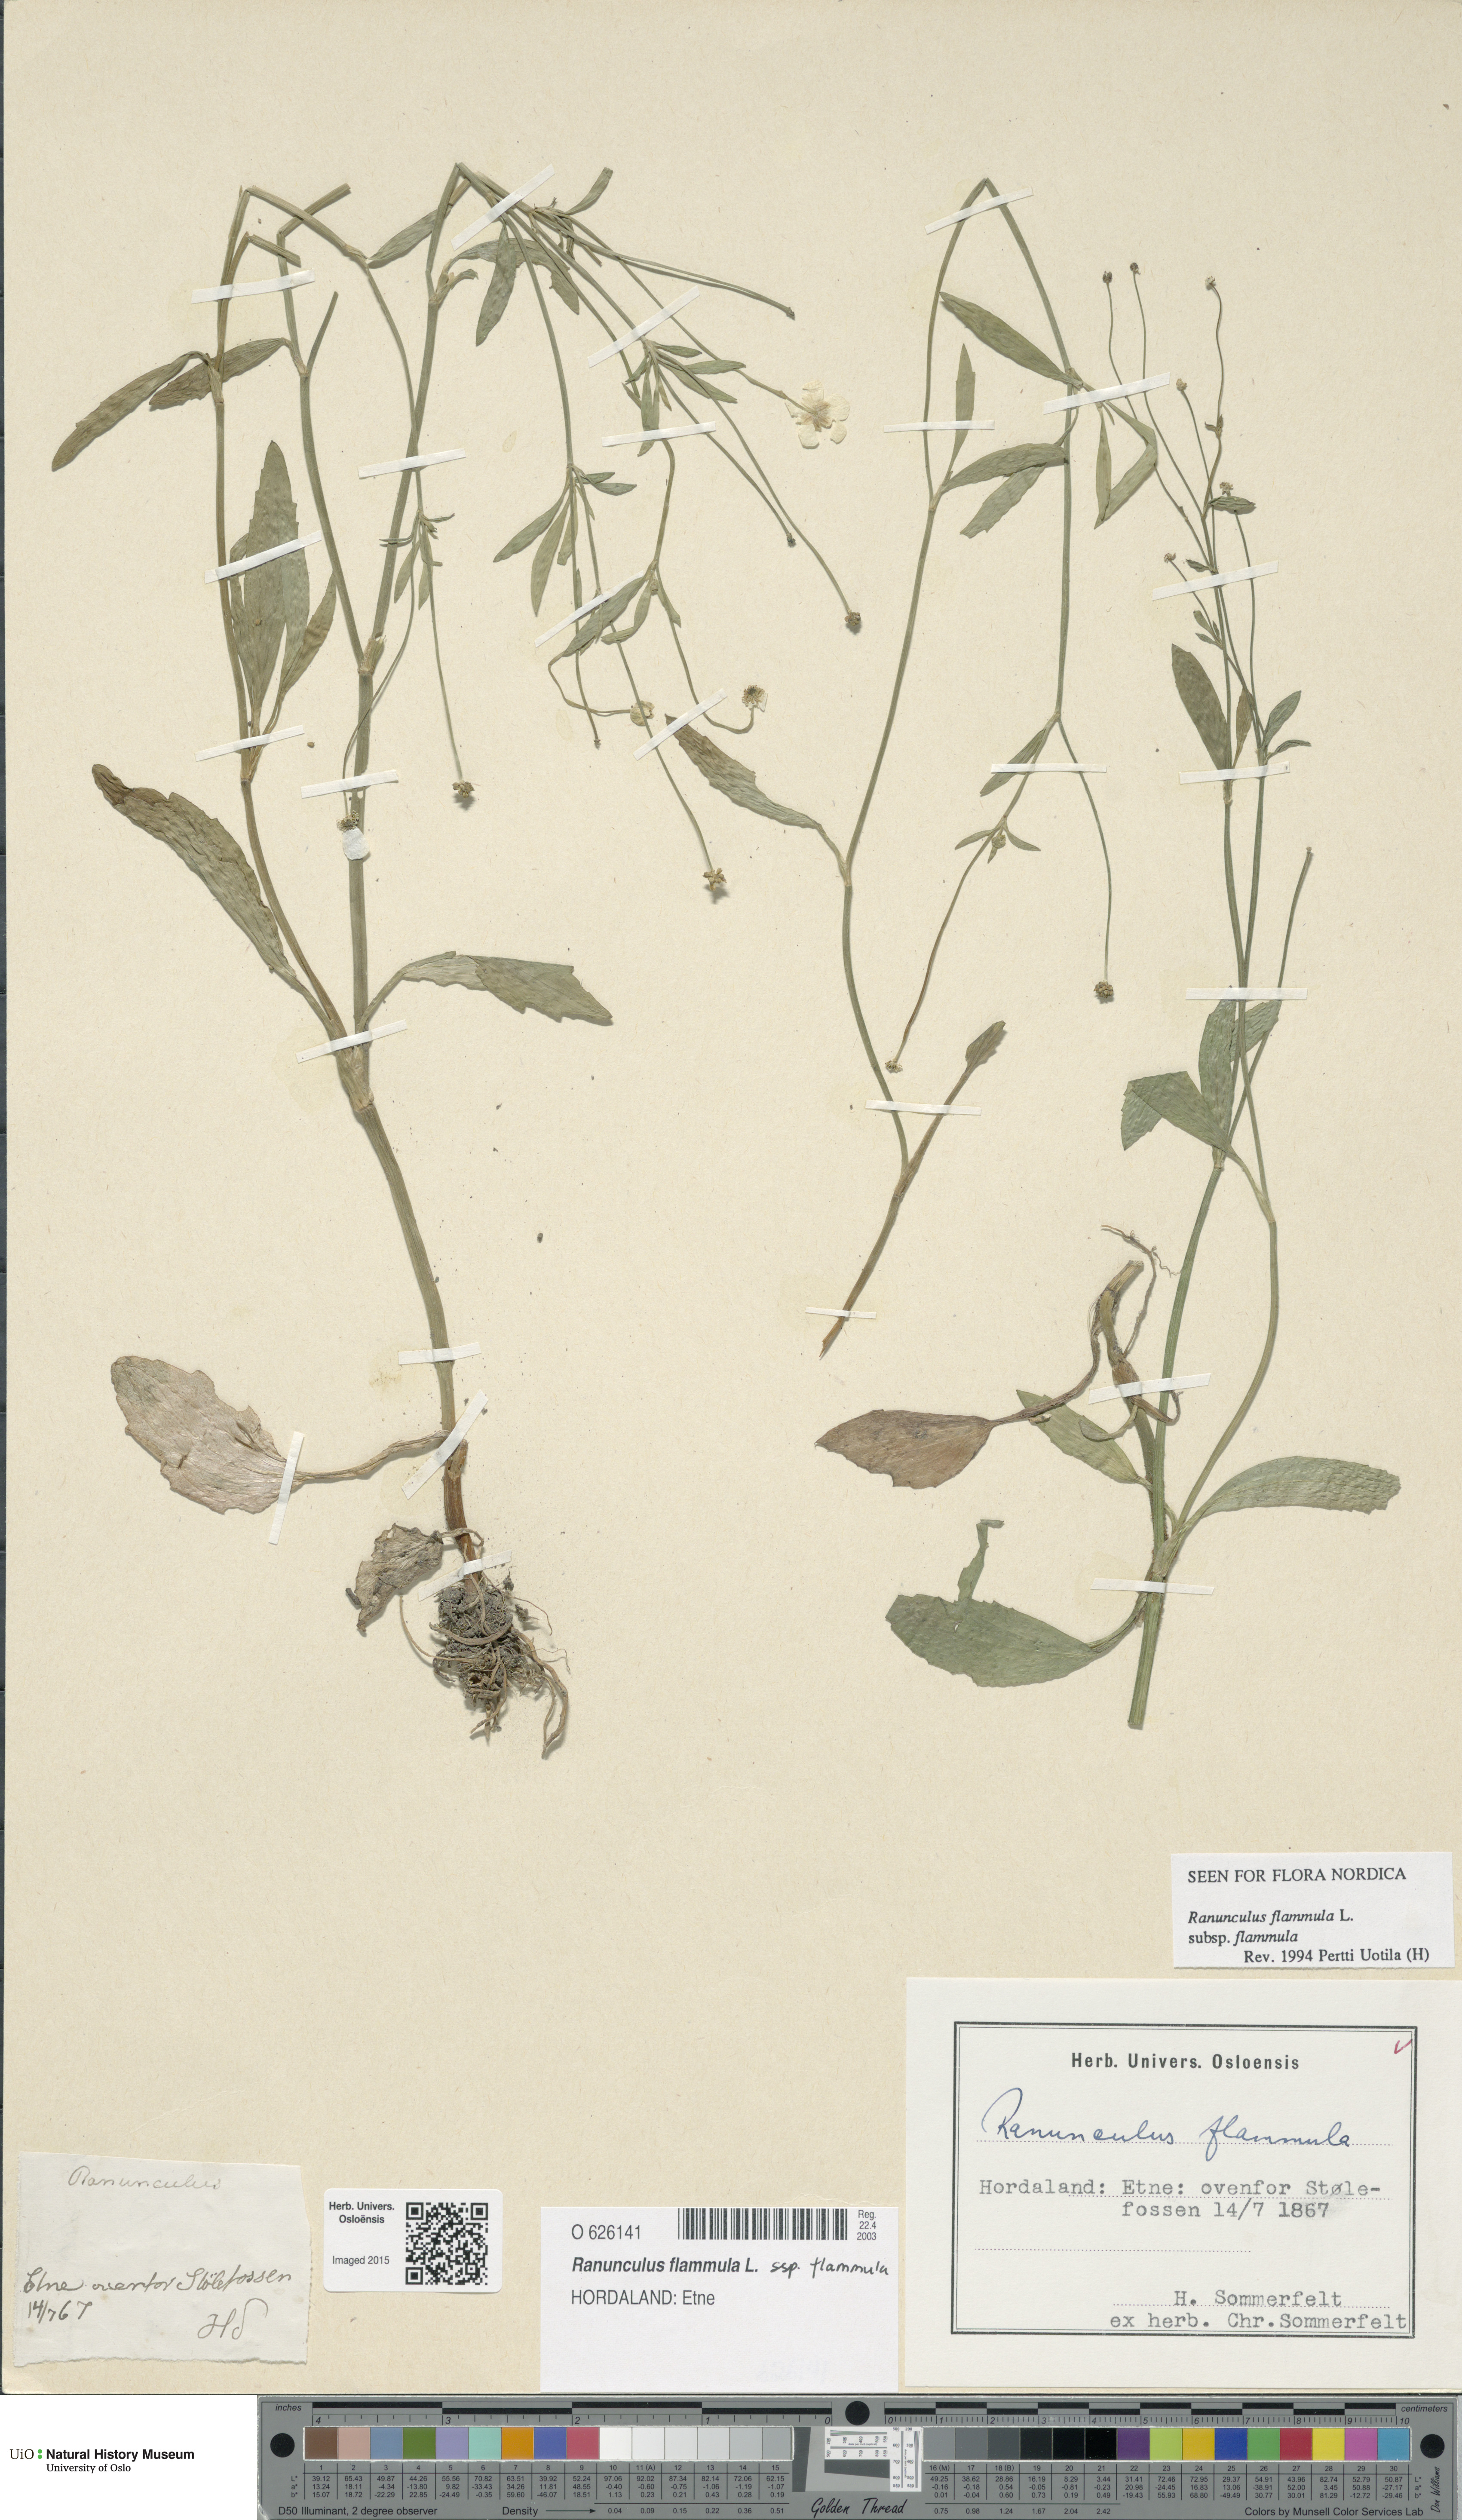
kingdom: Plantae
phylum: Tracheophyta
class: Magnoliopsida
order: Ranunculales
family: Ranunculaceae
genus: Ranunculus
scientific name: Ranunculus flammula
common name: Lesser spearwort
